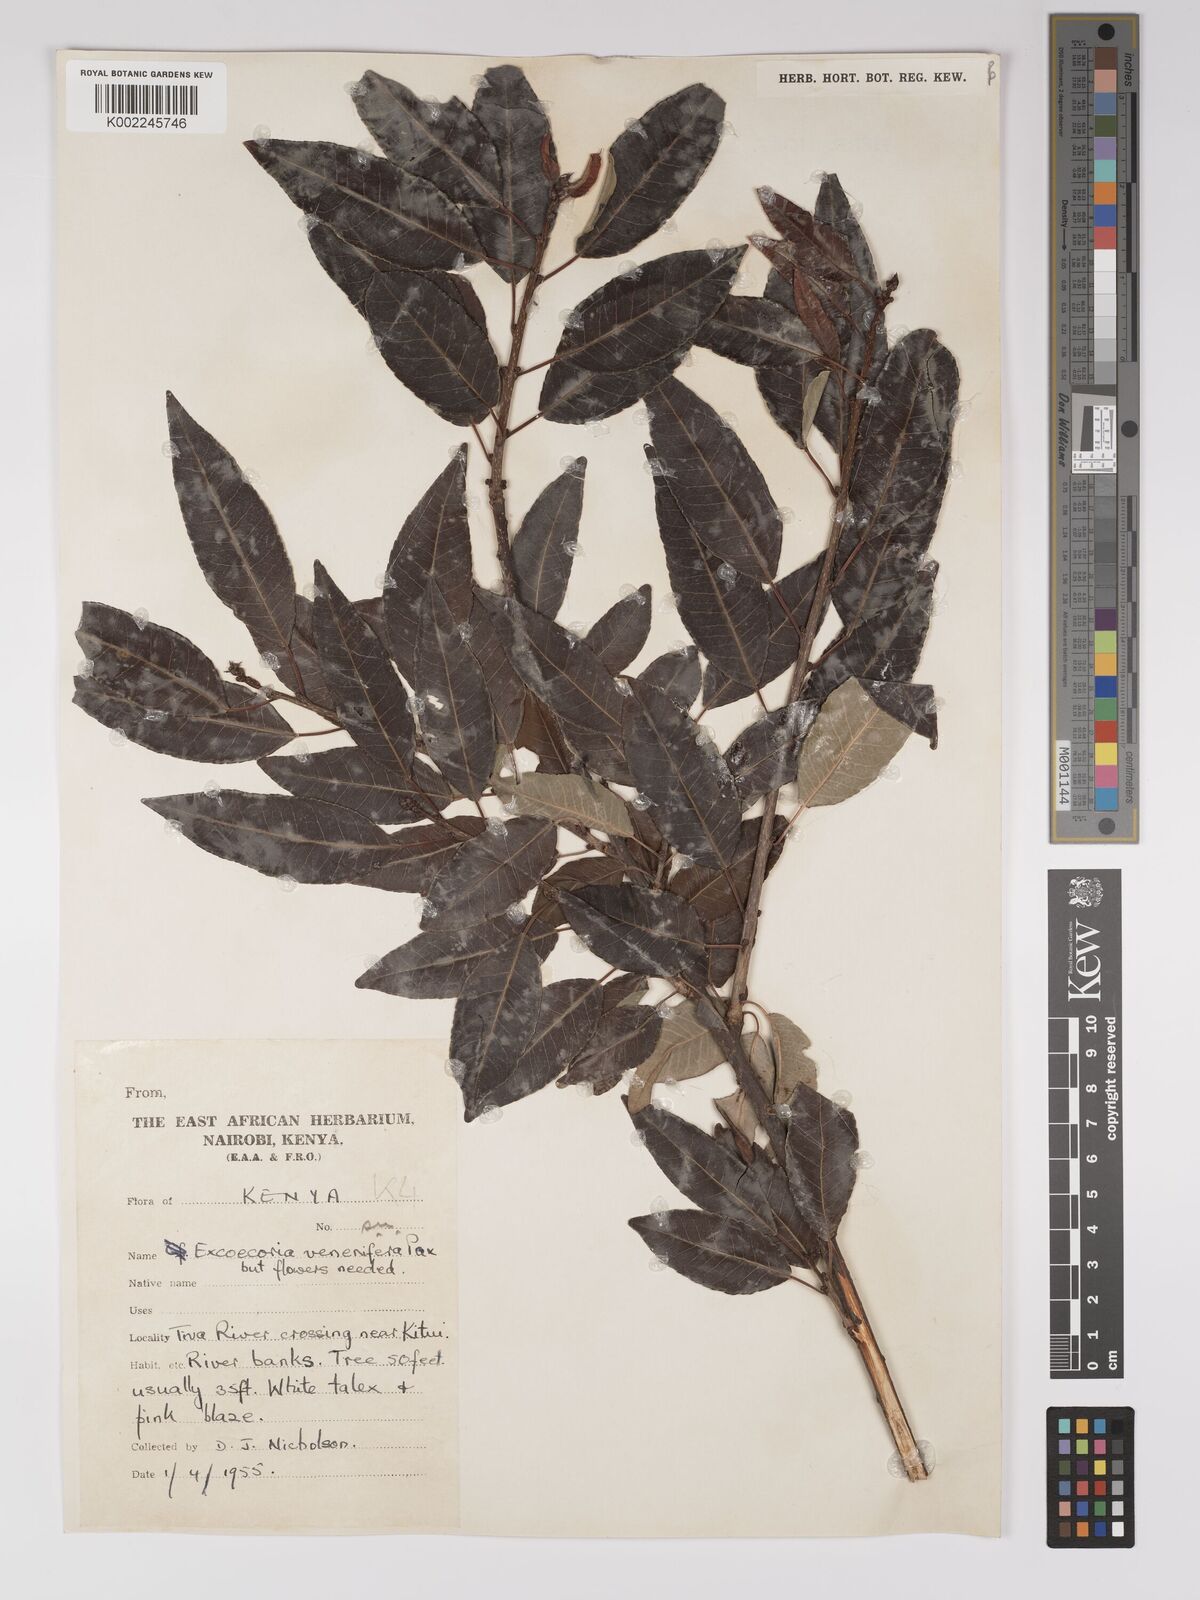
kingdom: Plantae
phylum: Tracheophyta
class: Magnoliopsida
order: Malpighiales
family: Euphorbiaceae
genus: Spirostachys
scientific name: Spirostachys venenifera
